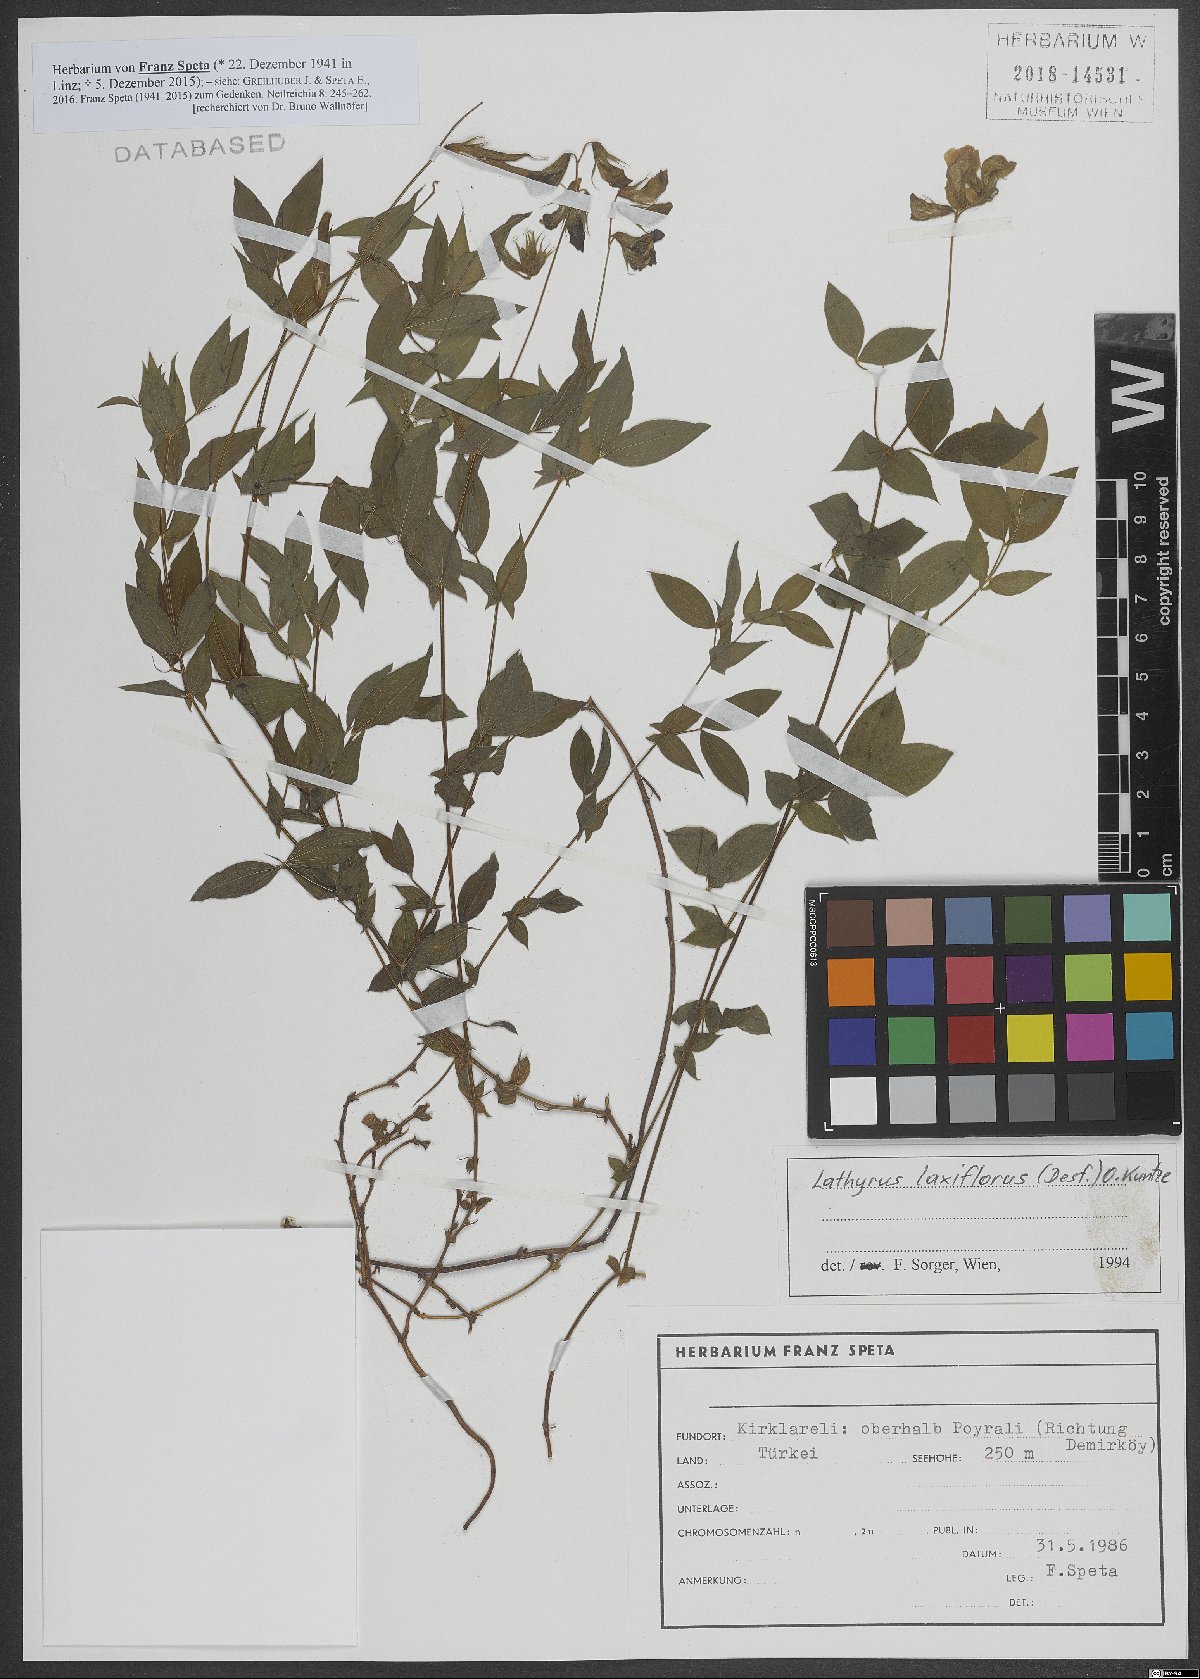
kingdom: Plantae
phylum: Tracheophyta
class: Magnoliopsida
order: Fabales
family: Fabaceae
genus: Lathyrus
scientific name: Lathyrus laxiflorus
